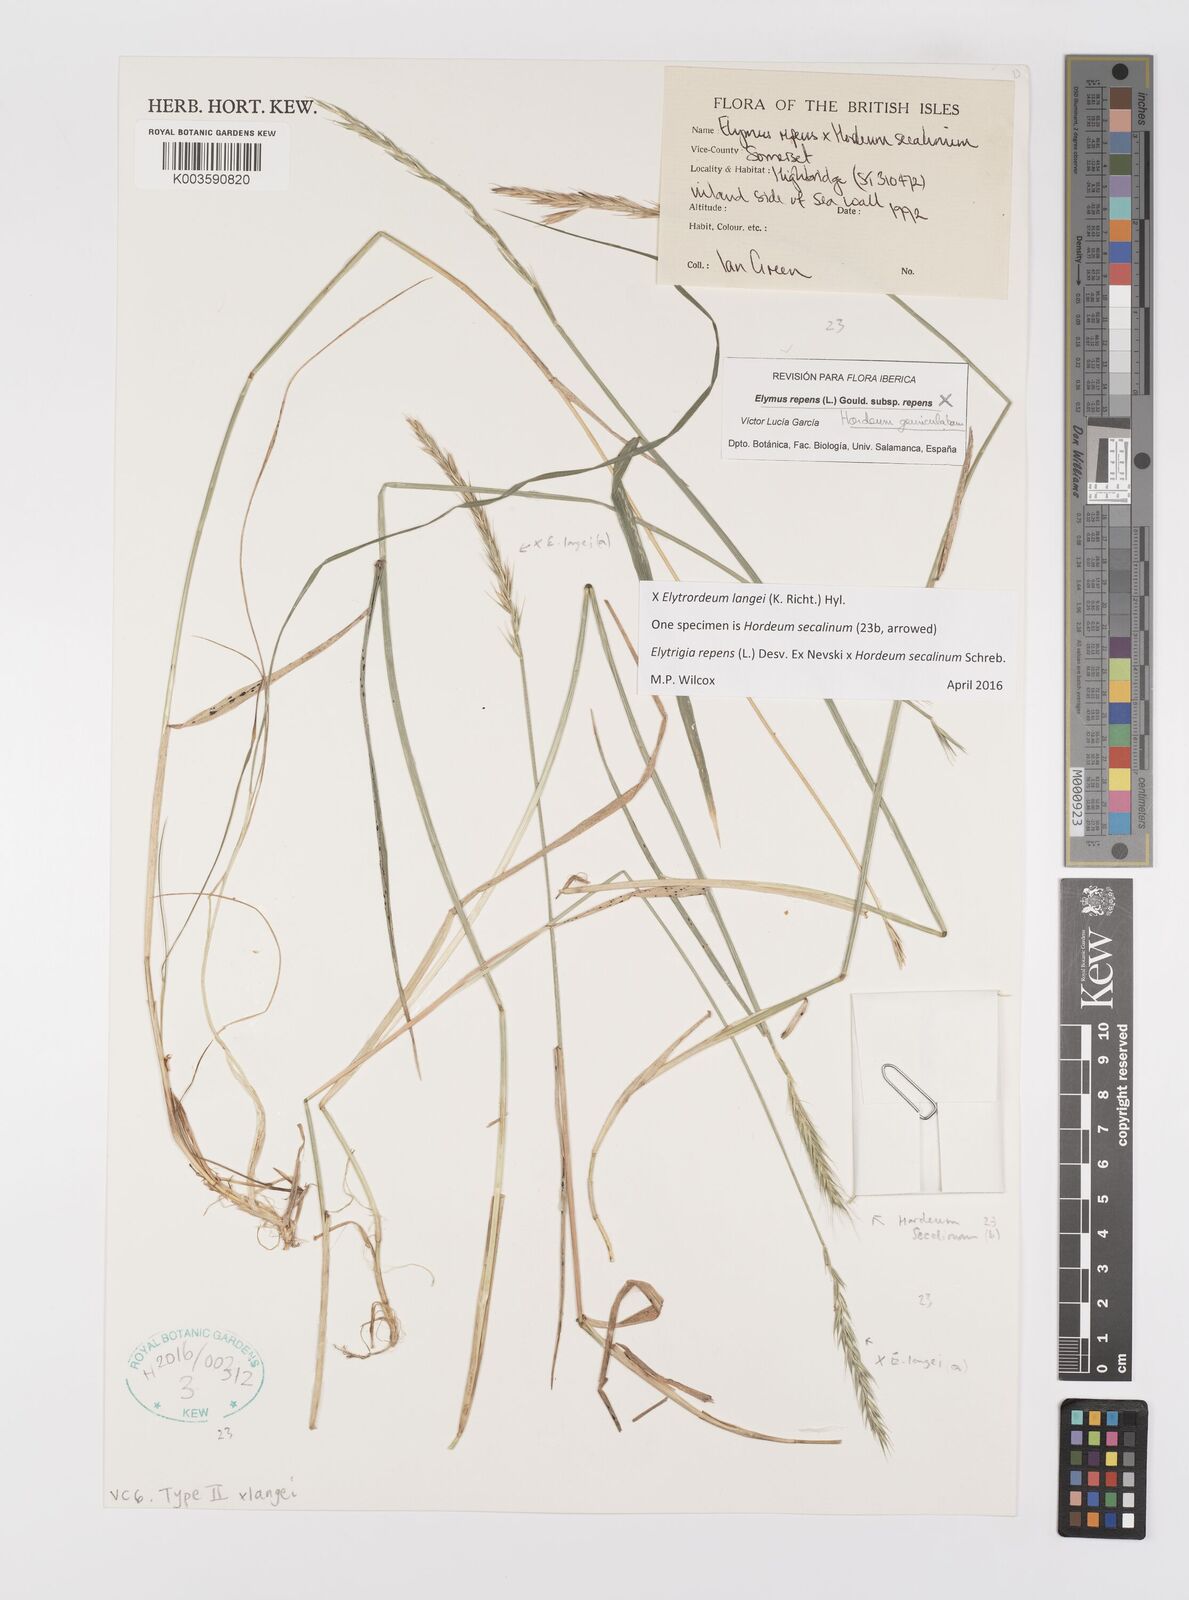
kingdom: Plantae
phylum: Tracheophyta
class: Liliopsida
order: Poales
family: Poaceae
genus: Elyhordeum
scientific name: Elyhordeum langei
